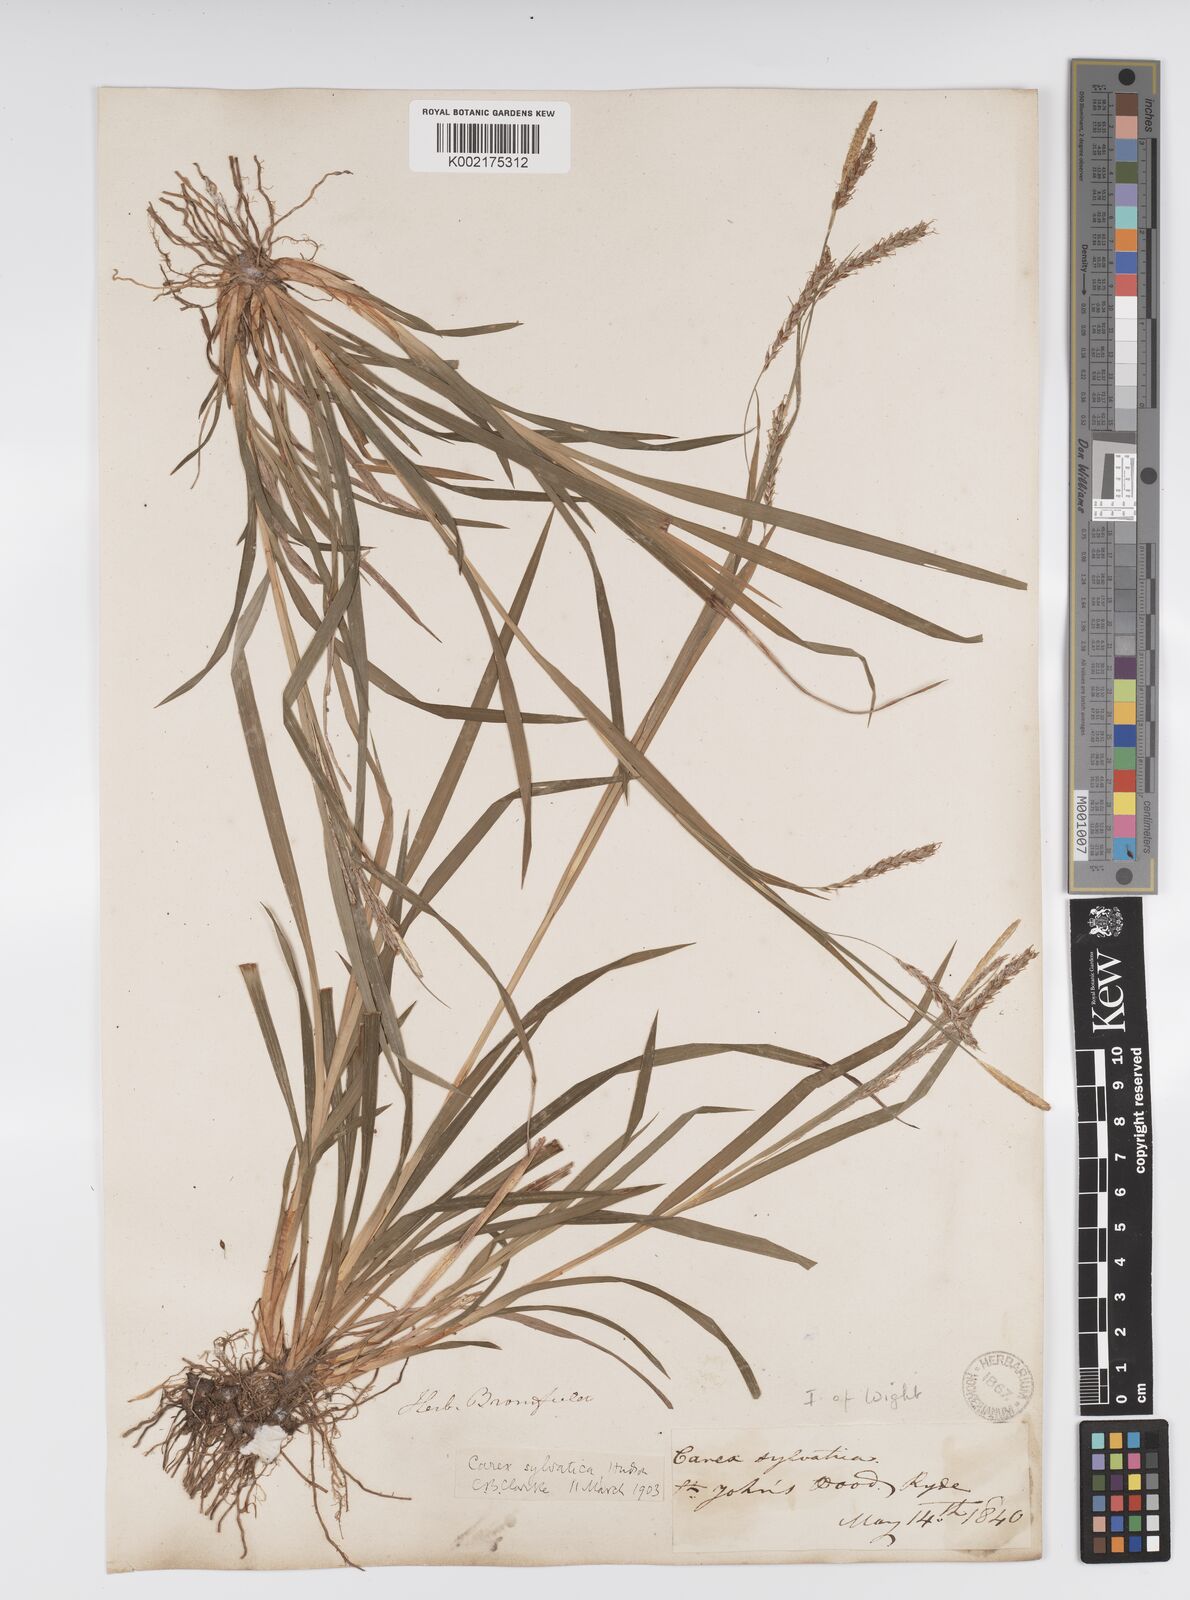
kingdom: Plantae
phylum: Tracheophyta
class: Liliopsida
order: Poales
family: Cyperaceae
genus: Carex
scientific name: Carex sylvatica
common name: Wood-sedge
